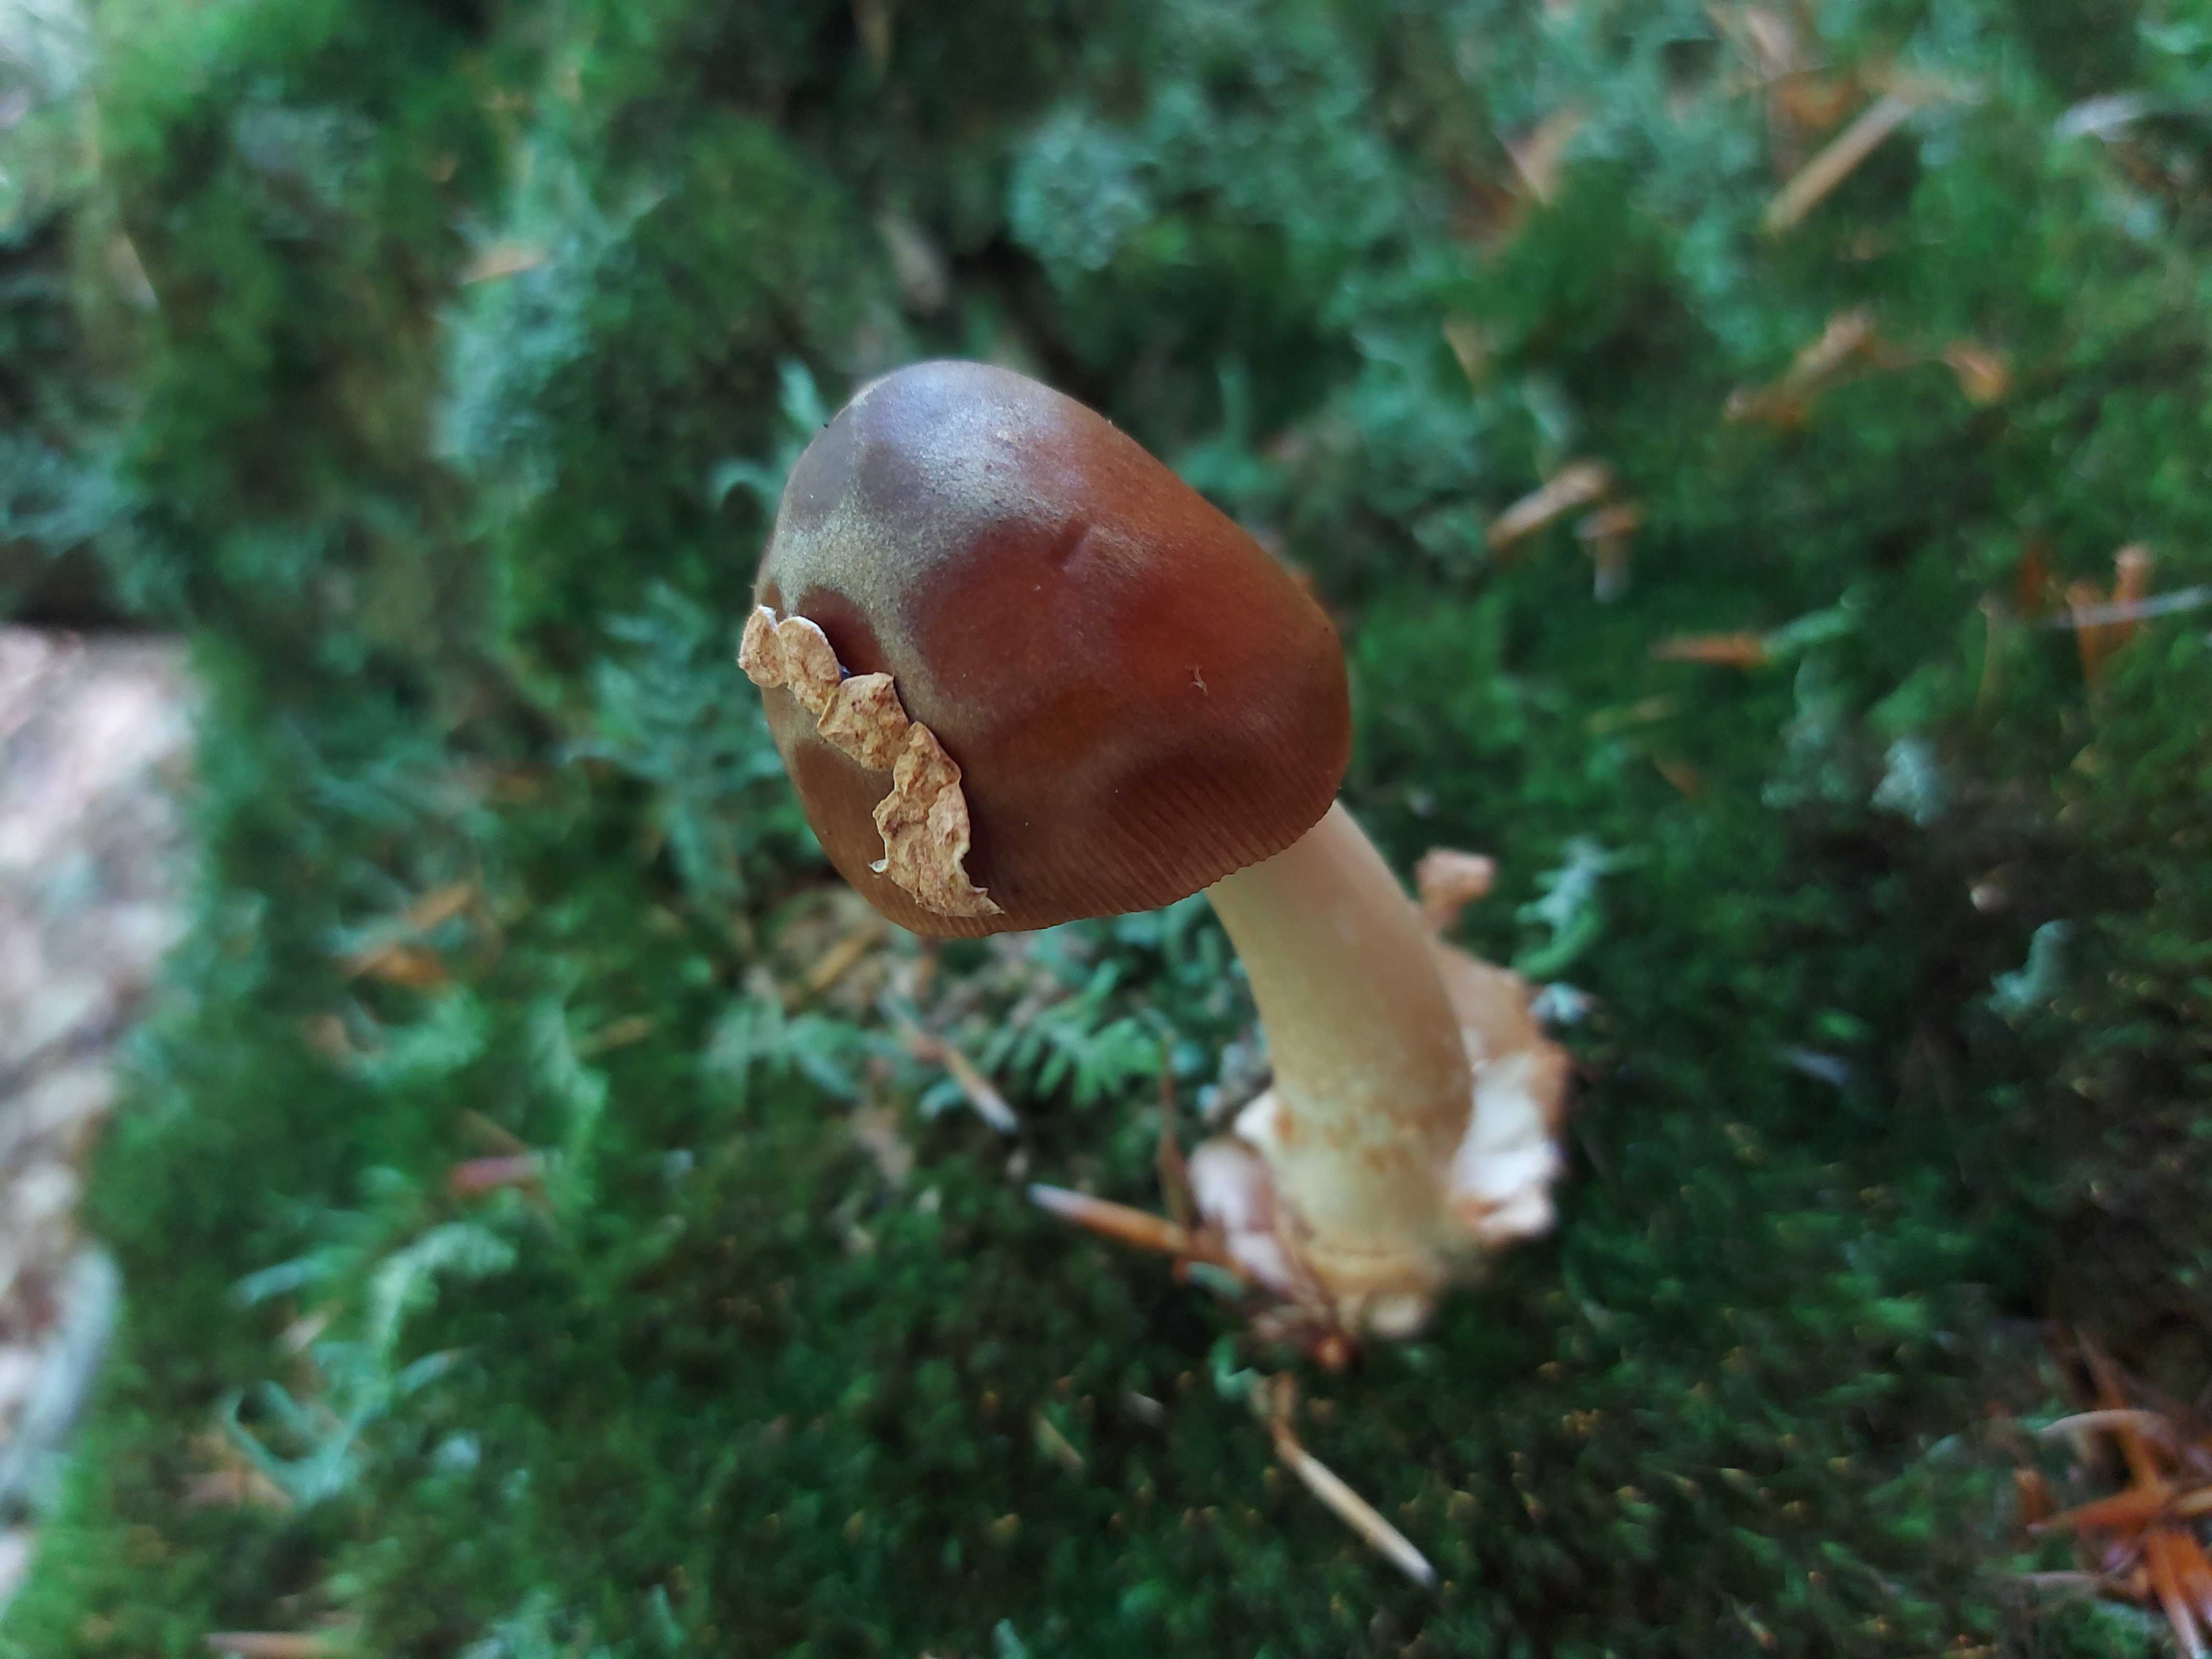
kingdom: Fungi
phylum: Basidiomycota
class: Agaricomycetes
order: Agaricales
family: Amanitaceae
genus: Amanita
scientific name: Amanita fulva
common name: brun kam-fluesvamp
